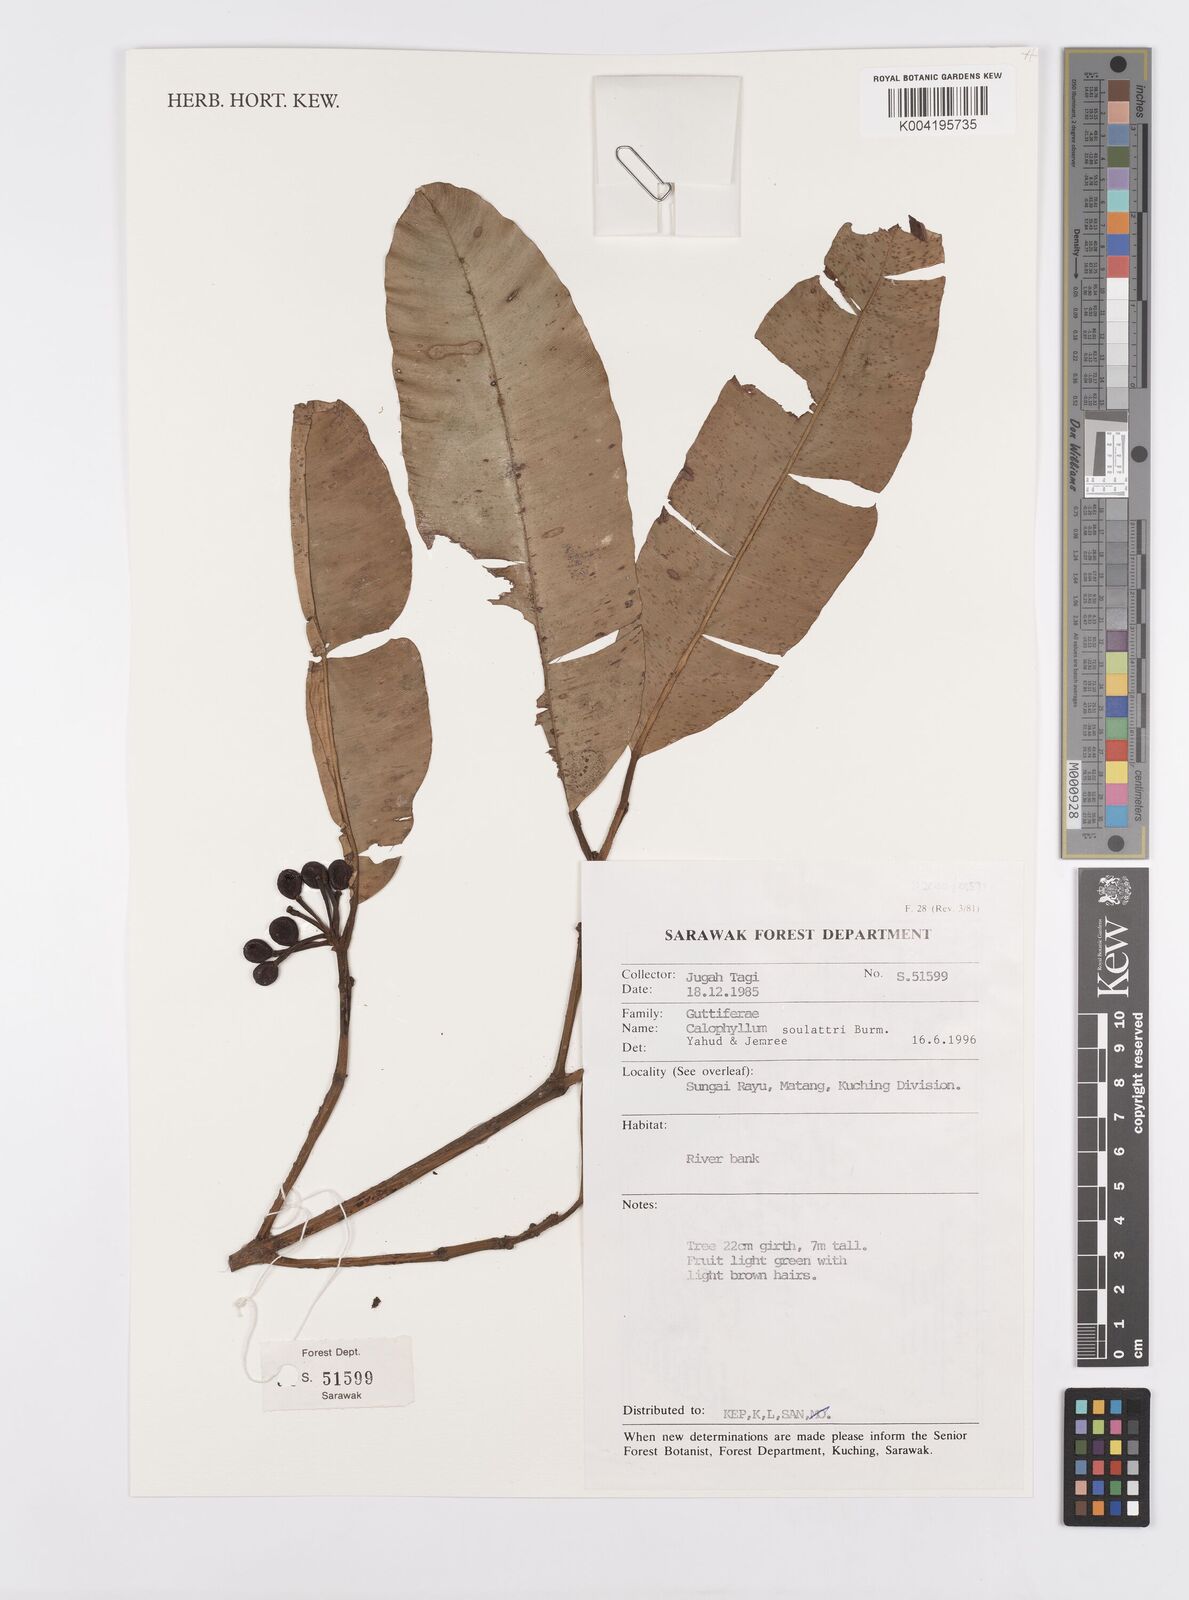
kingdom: Plantae
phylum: Tracheophyta
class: Magnoliopsida
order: Malpighiales
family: Calophyllaceae
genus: Calophyllum
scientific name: Calophyllum soulattri
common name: Bitangoor boonot
